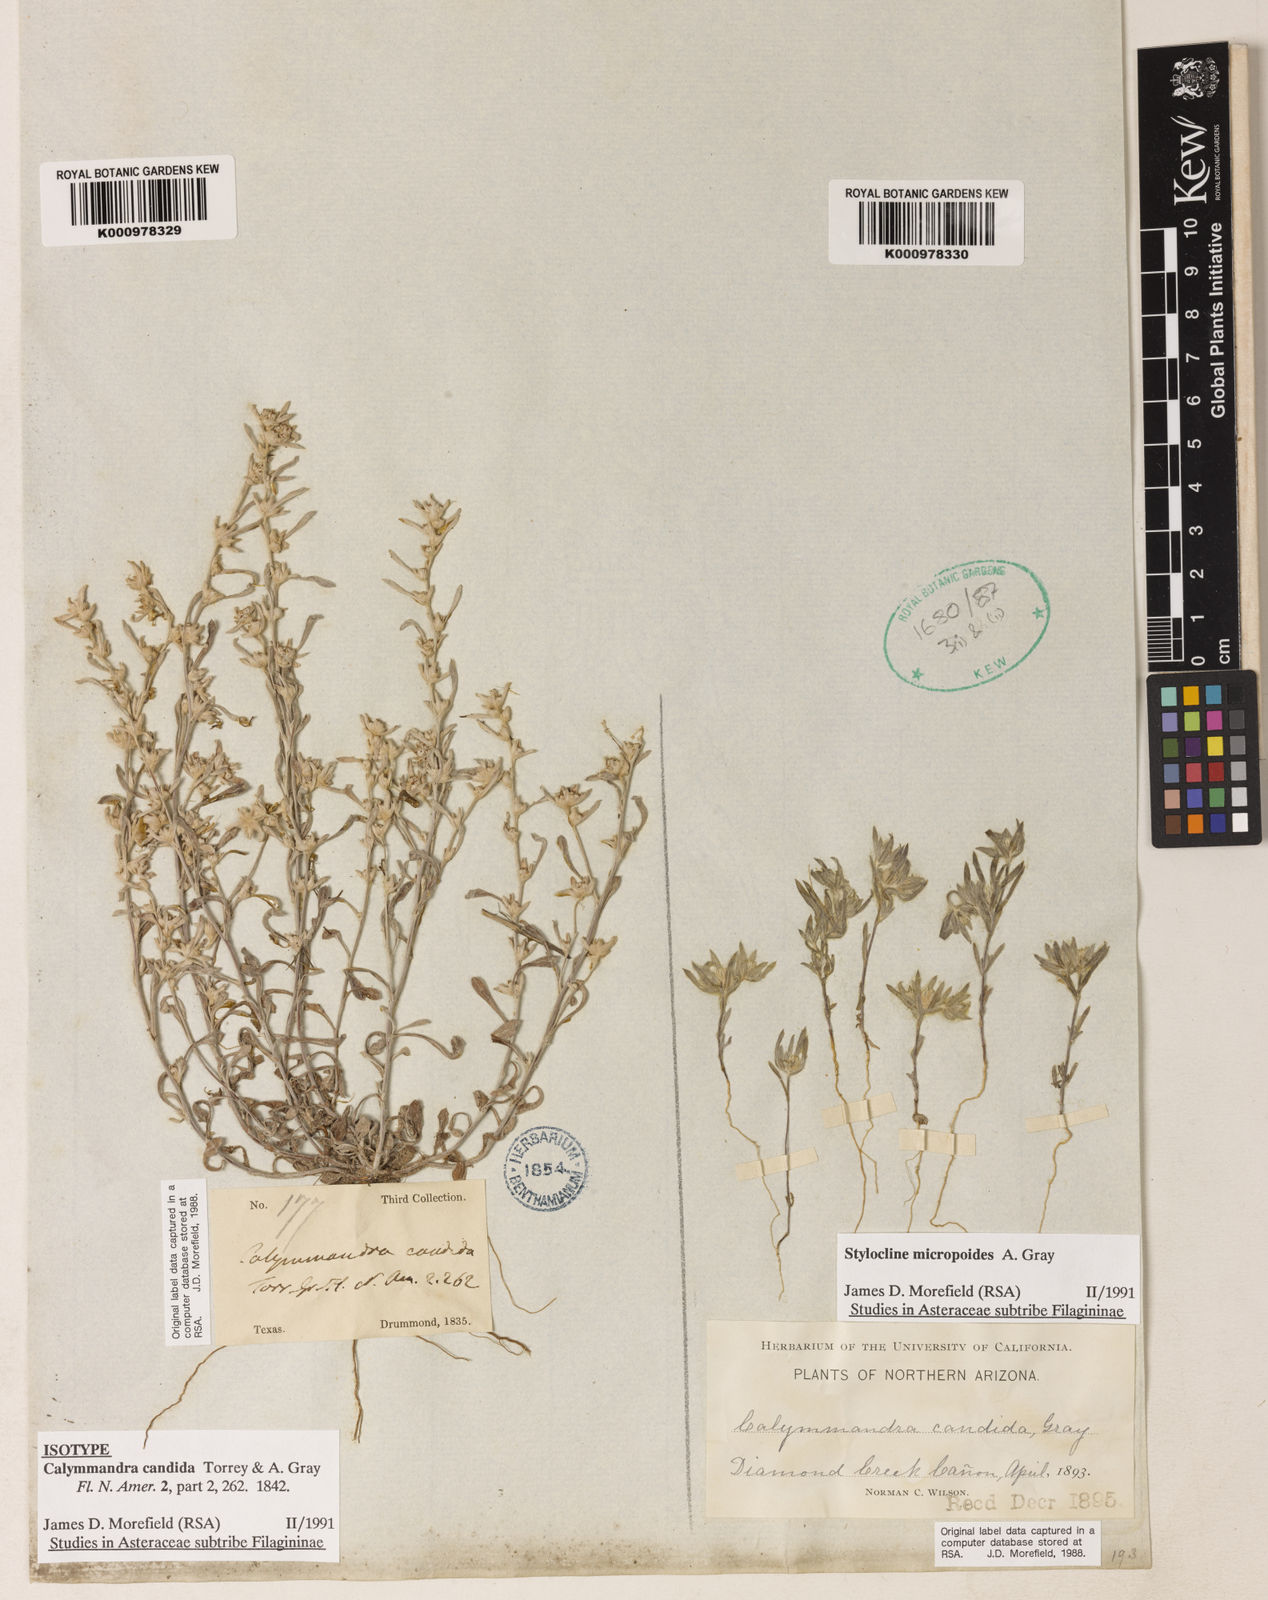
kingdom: Plantae
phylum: Tracheophyta
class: Magnoliopsida
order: Asterales
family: Asteraceae
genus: Diaperia
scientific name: Diaperia candida
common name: Silver rabbit-tobacco
